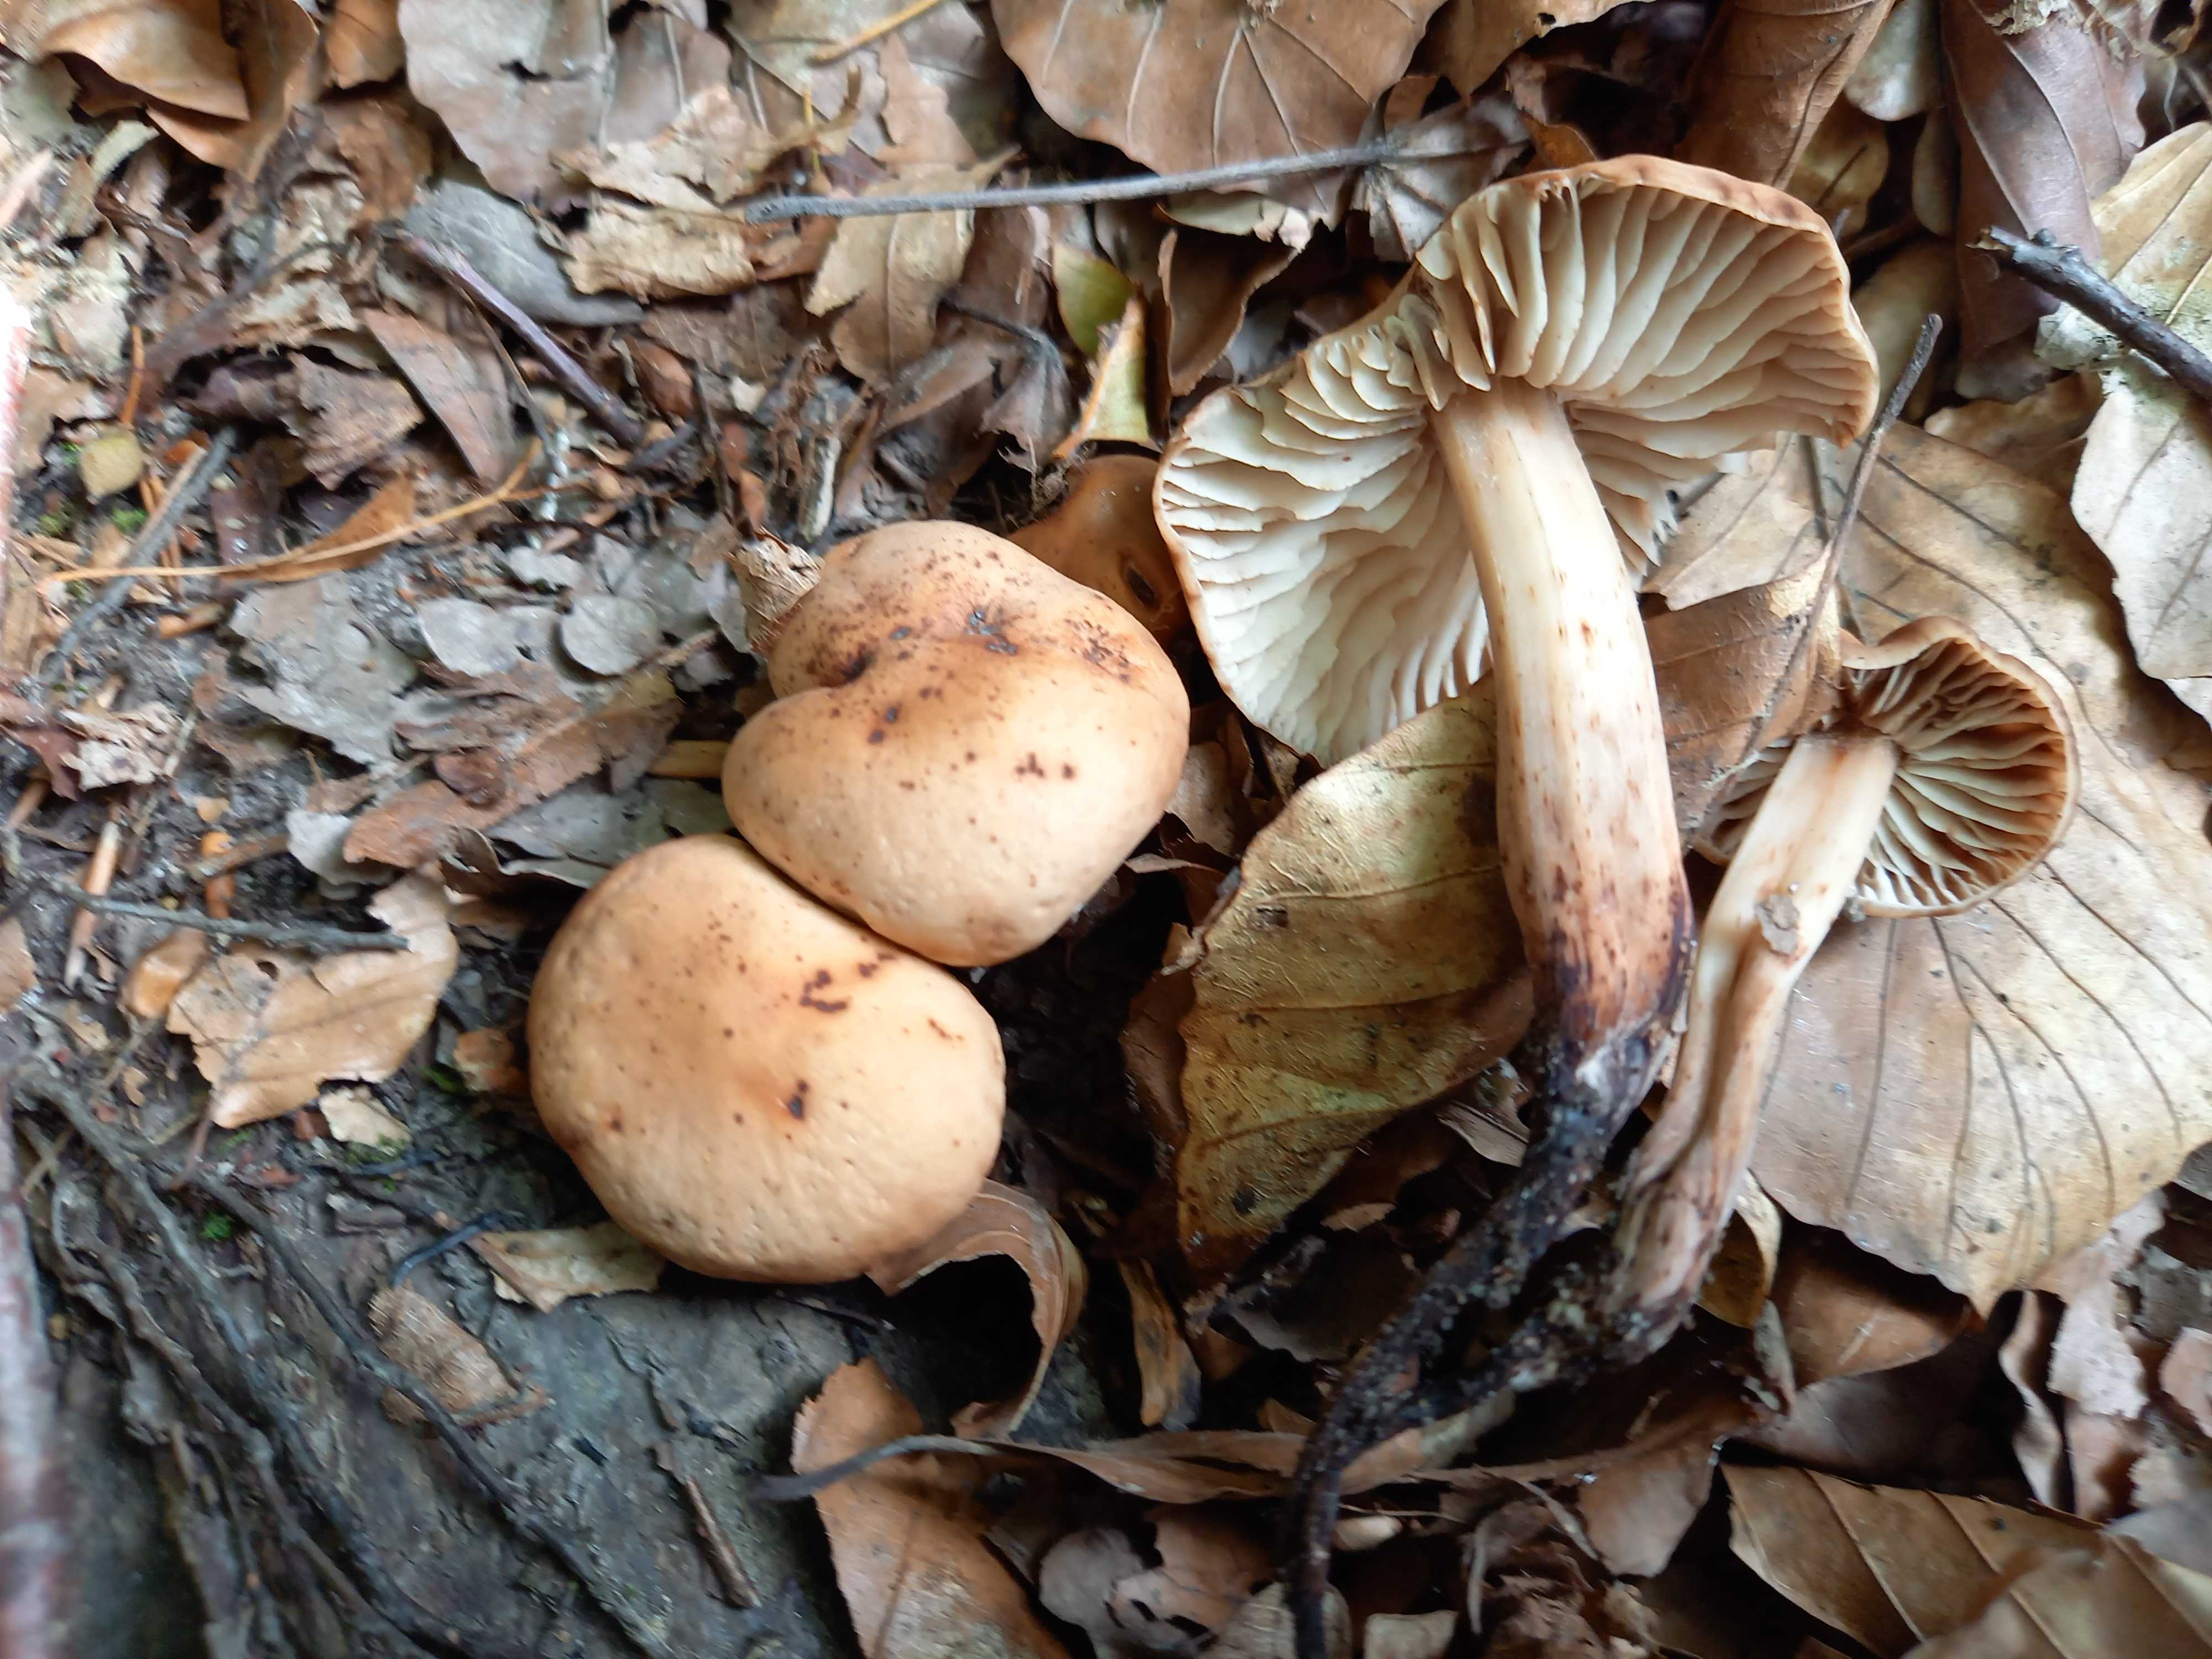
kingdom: Fungi
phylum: Basidiomycota
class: Agaricomycetes
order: Agaricales
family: Omphalotaceae
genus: Gymnopus
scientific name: Gymnopus fusipes
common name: tenstokket fladhat
